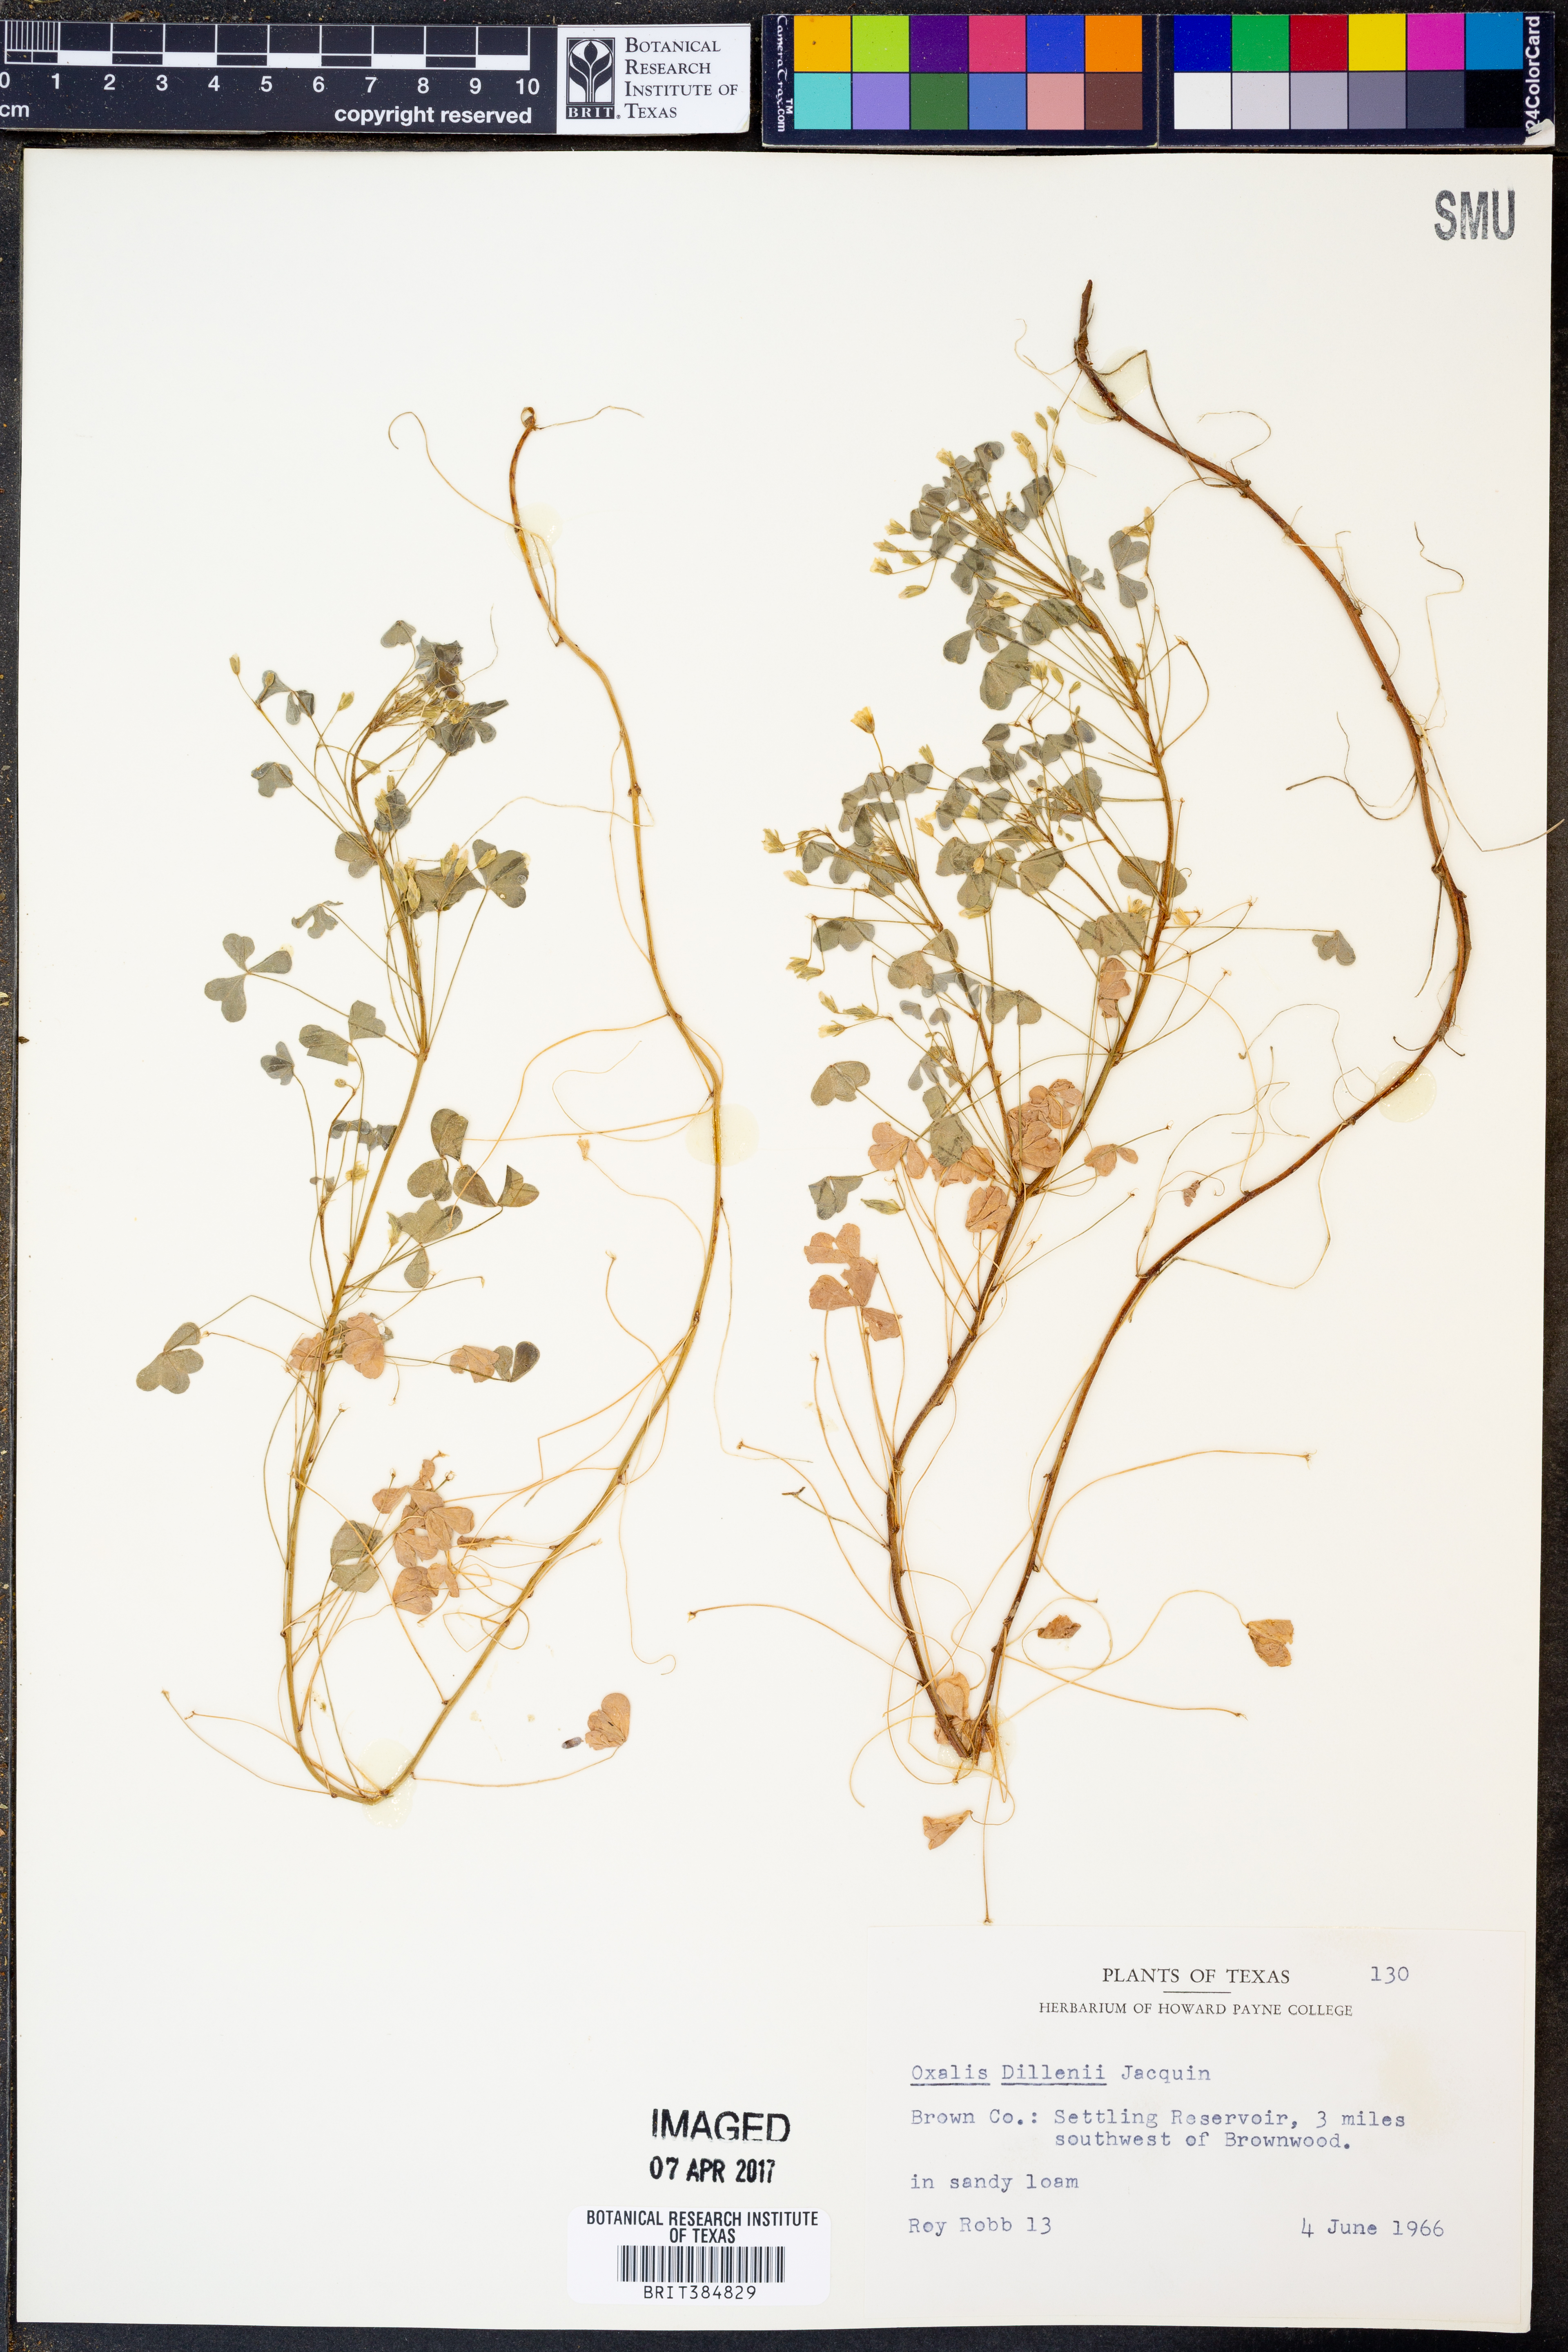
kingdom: Plantae
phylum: Tracheophyta
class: Magnoliopsida
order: Oxalidales
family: Oxalidaceae
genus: Oxalis
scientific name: Oxalis dillenii
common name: Sussex yellow-sorrel
